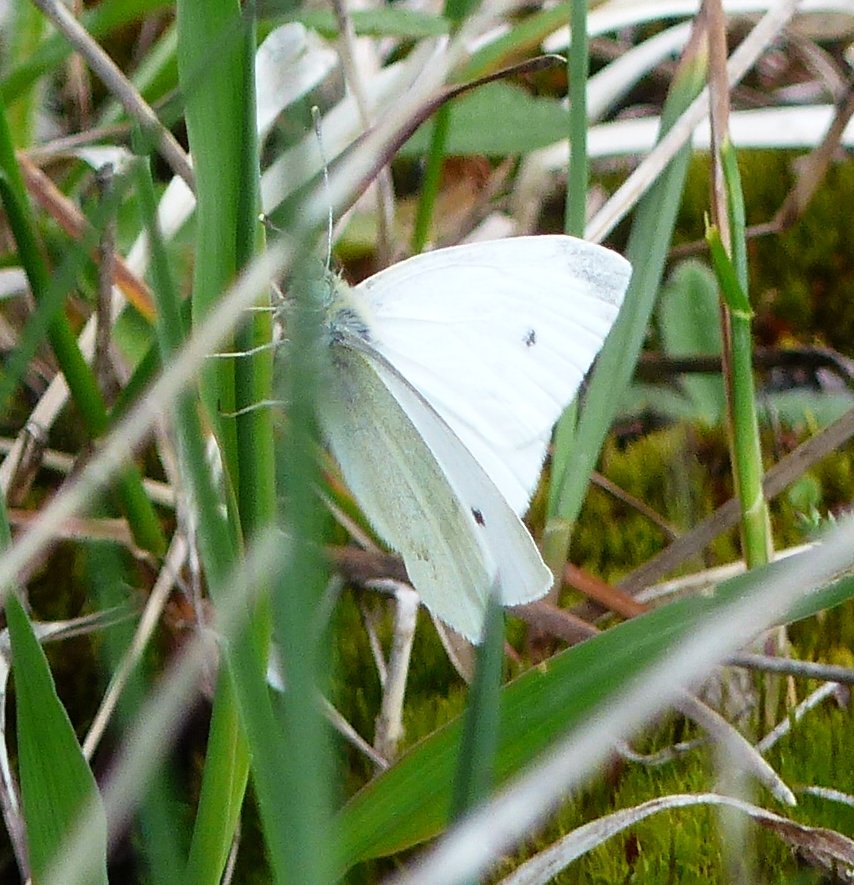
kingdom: Animalia
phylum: Arthropoda
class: Insecta
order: Lepidoptera
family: Pieridae
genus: Pieris
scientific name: Pieris rapae
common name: Cabbage White
